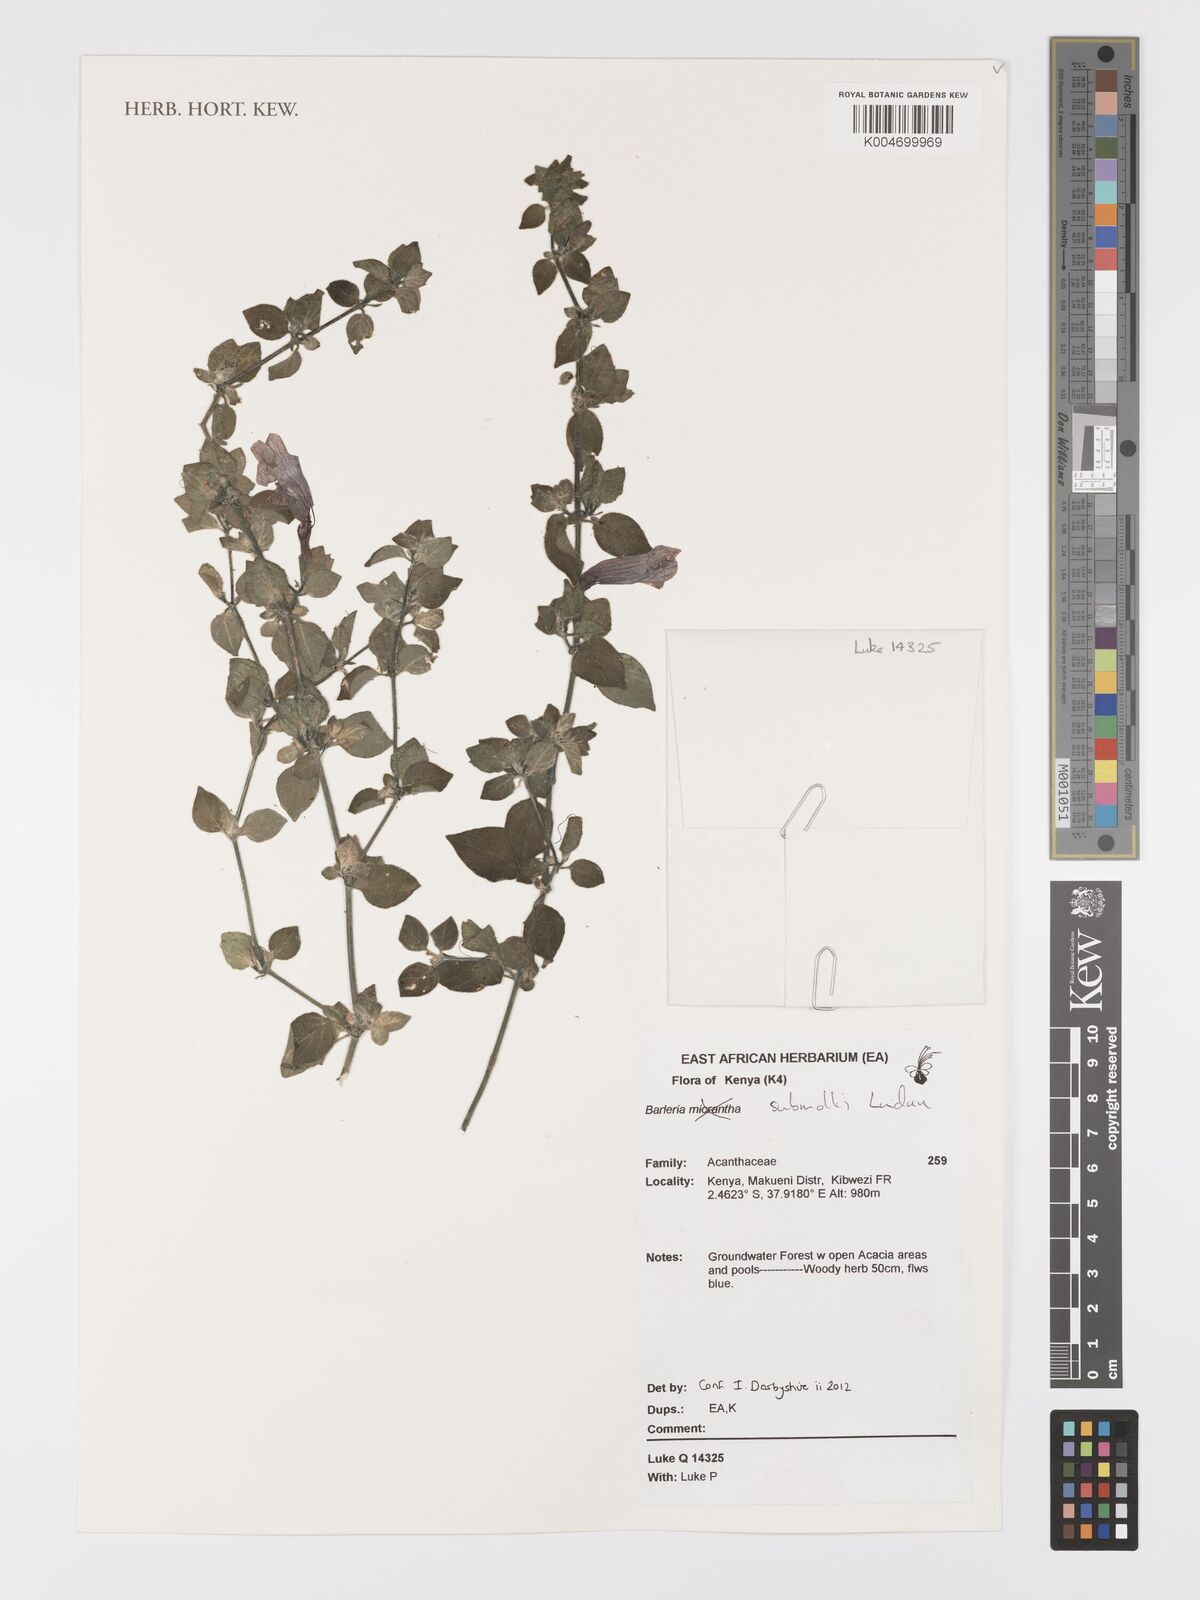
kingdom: Plantae
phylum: Tracheophyta
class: Magnoliopsida
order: Lamiales
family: Acanthaceae
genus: Barleria
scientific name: Barleria submollis
